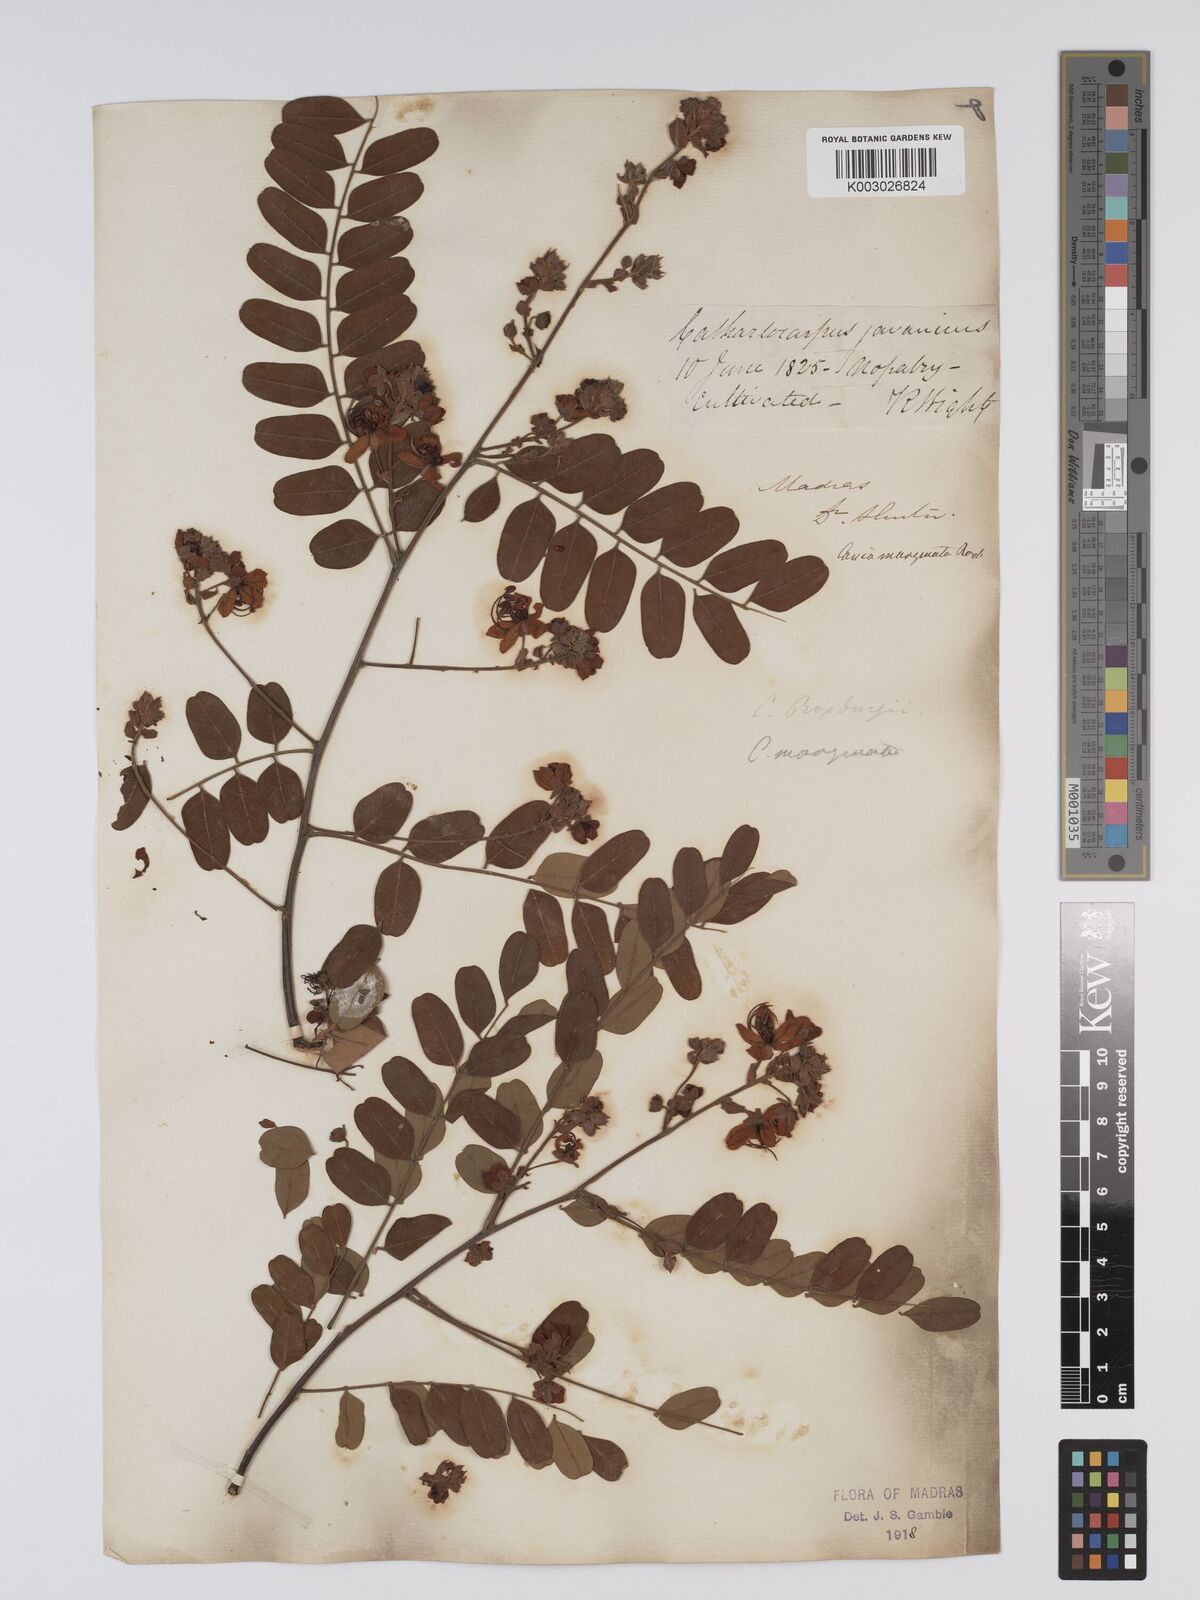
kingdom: Plantae
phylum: Tracheophyta
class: Magnoliopsida
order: Fabales
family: Fabaceae
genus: Cassia
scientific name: Cassia
